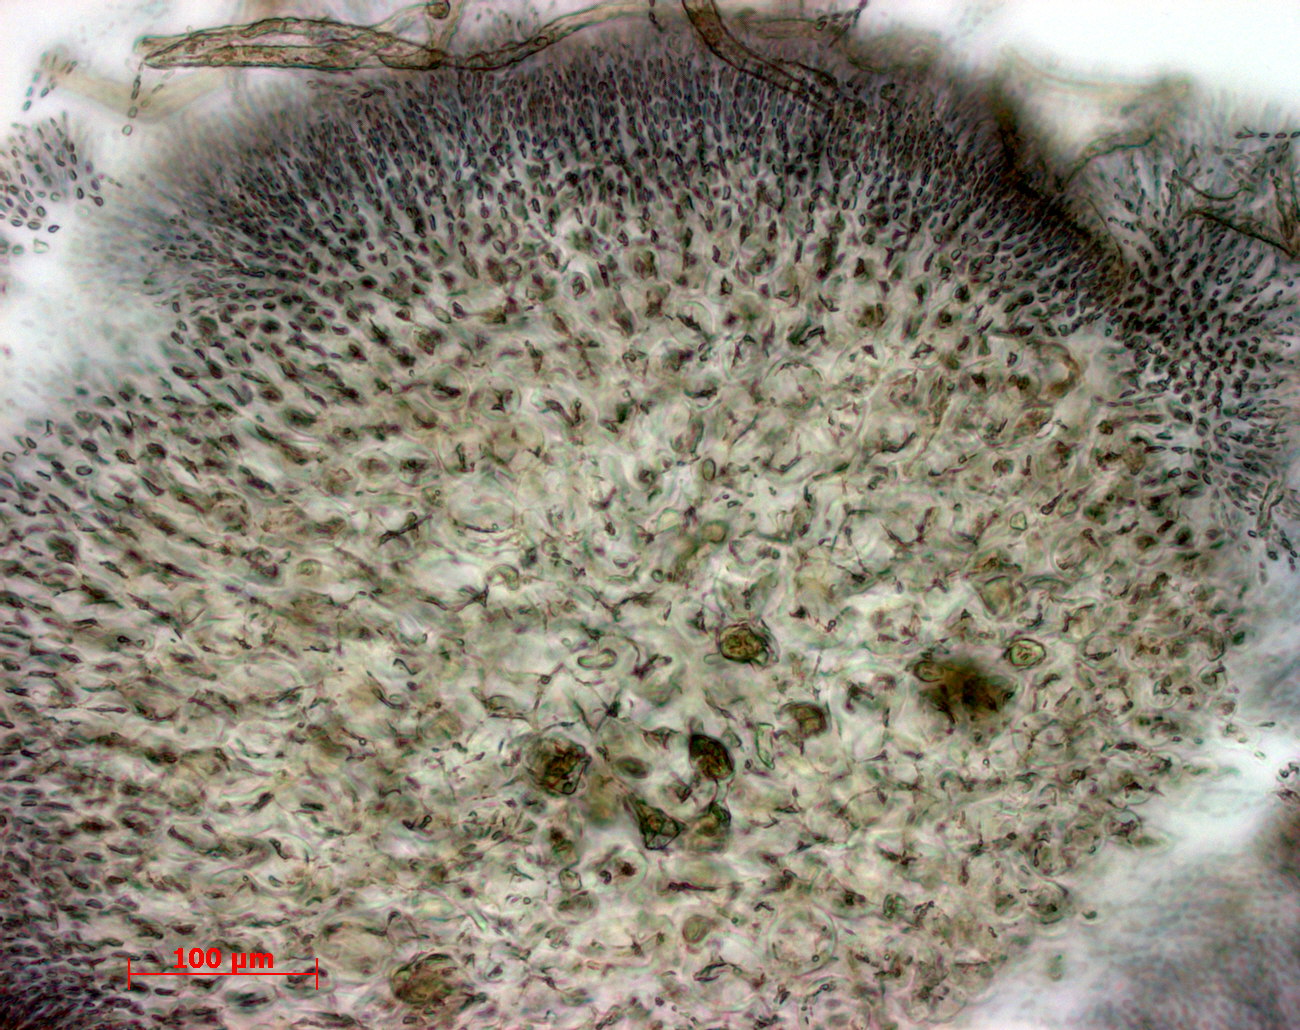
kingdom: Plantae
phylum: Rhodophyta
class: Florideophyceae
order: Gigartinales
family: Phyllophoraceae
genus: Gymnogongrus
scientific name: Gymnogongrus torulosus
